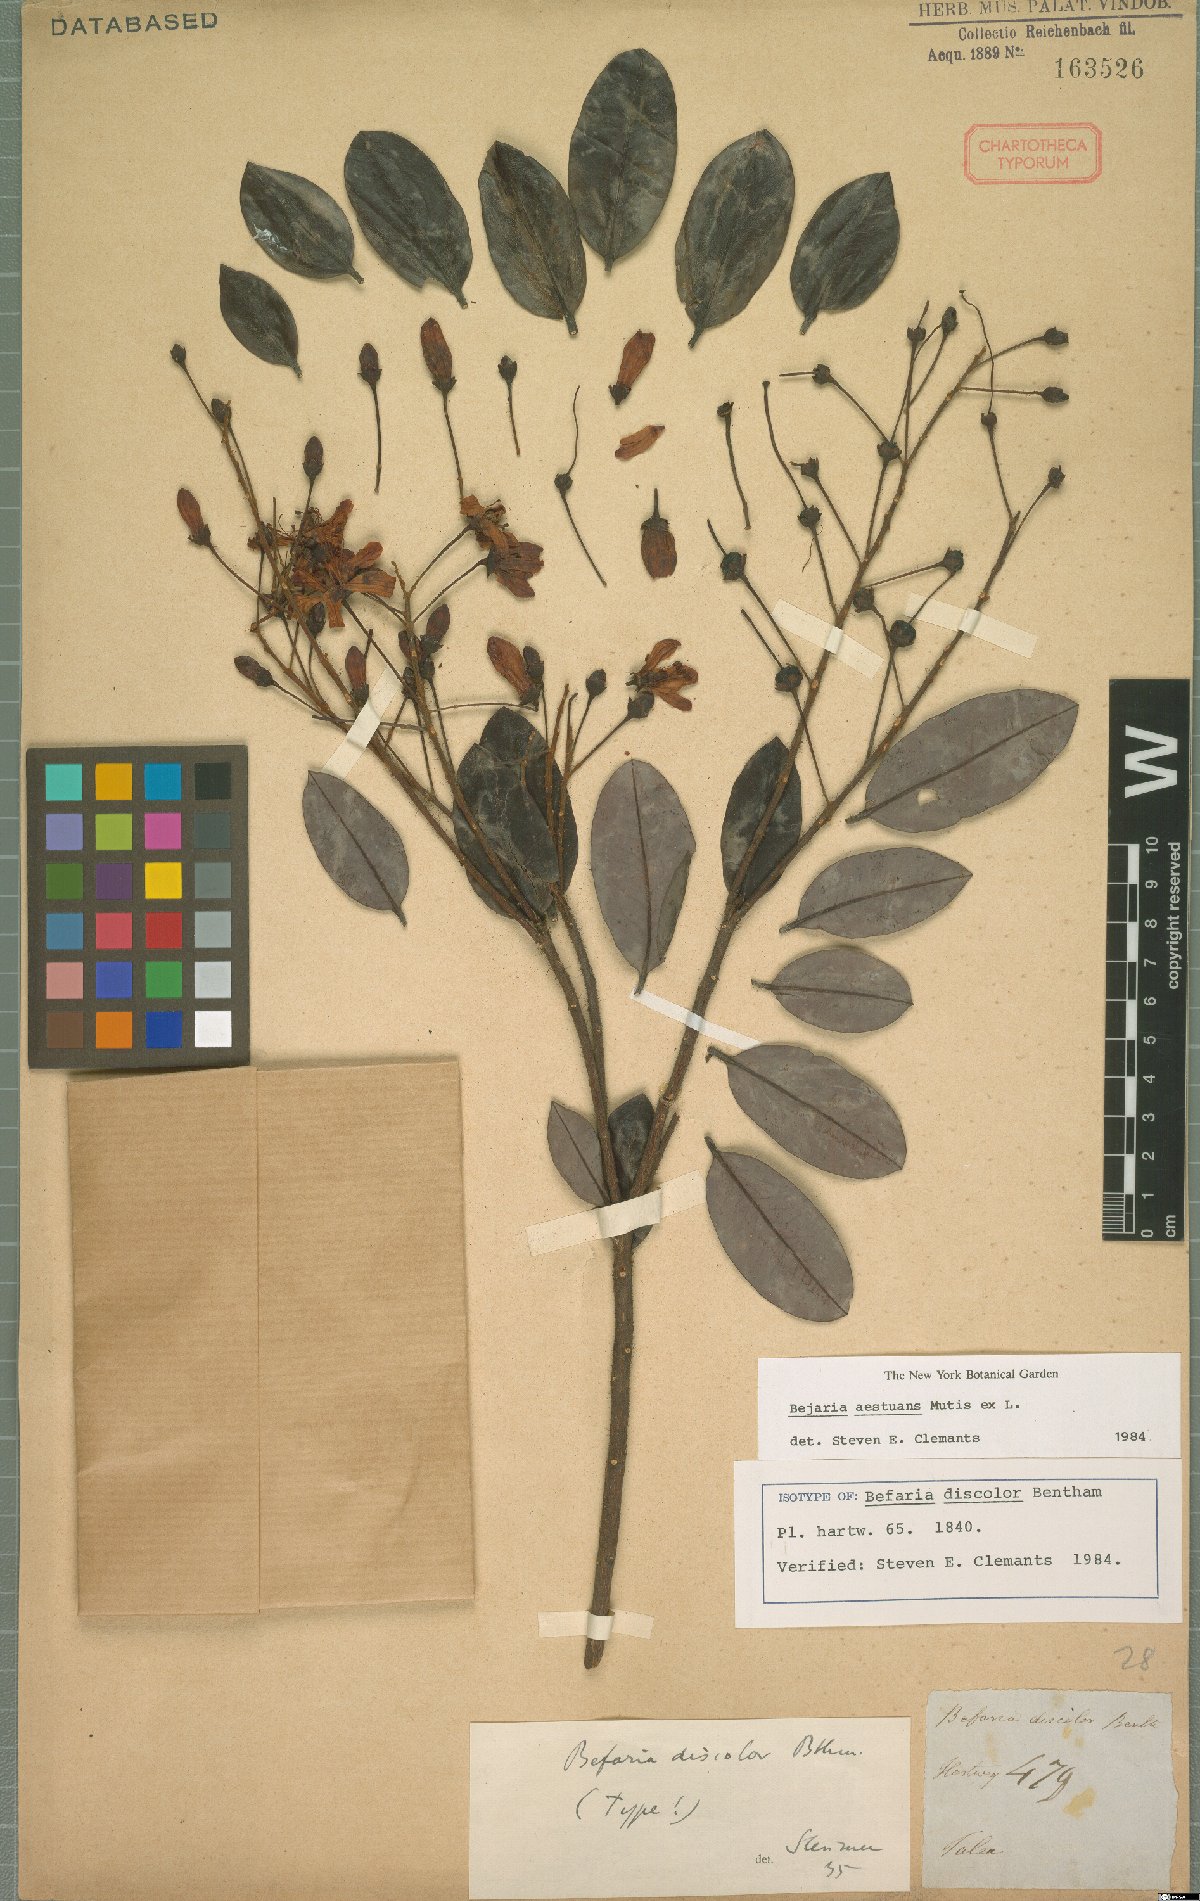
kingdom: Plantae
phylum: Tracheophyta
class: Magnoliopsida
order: Ericales
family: Ericaceae
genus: Bejaria
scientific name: Bejaria aestuans
